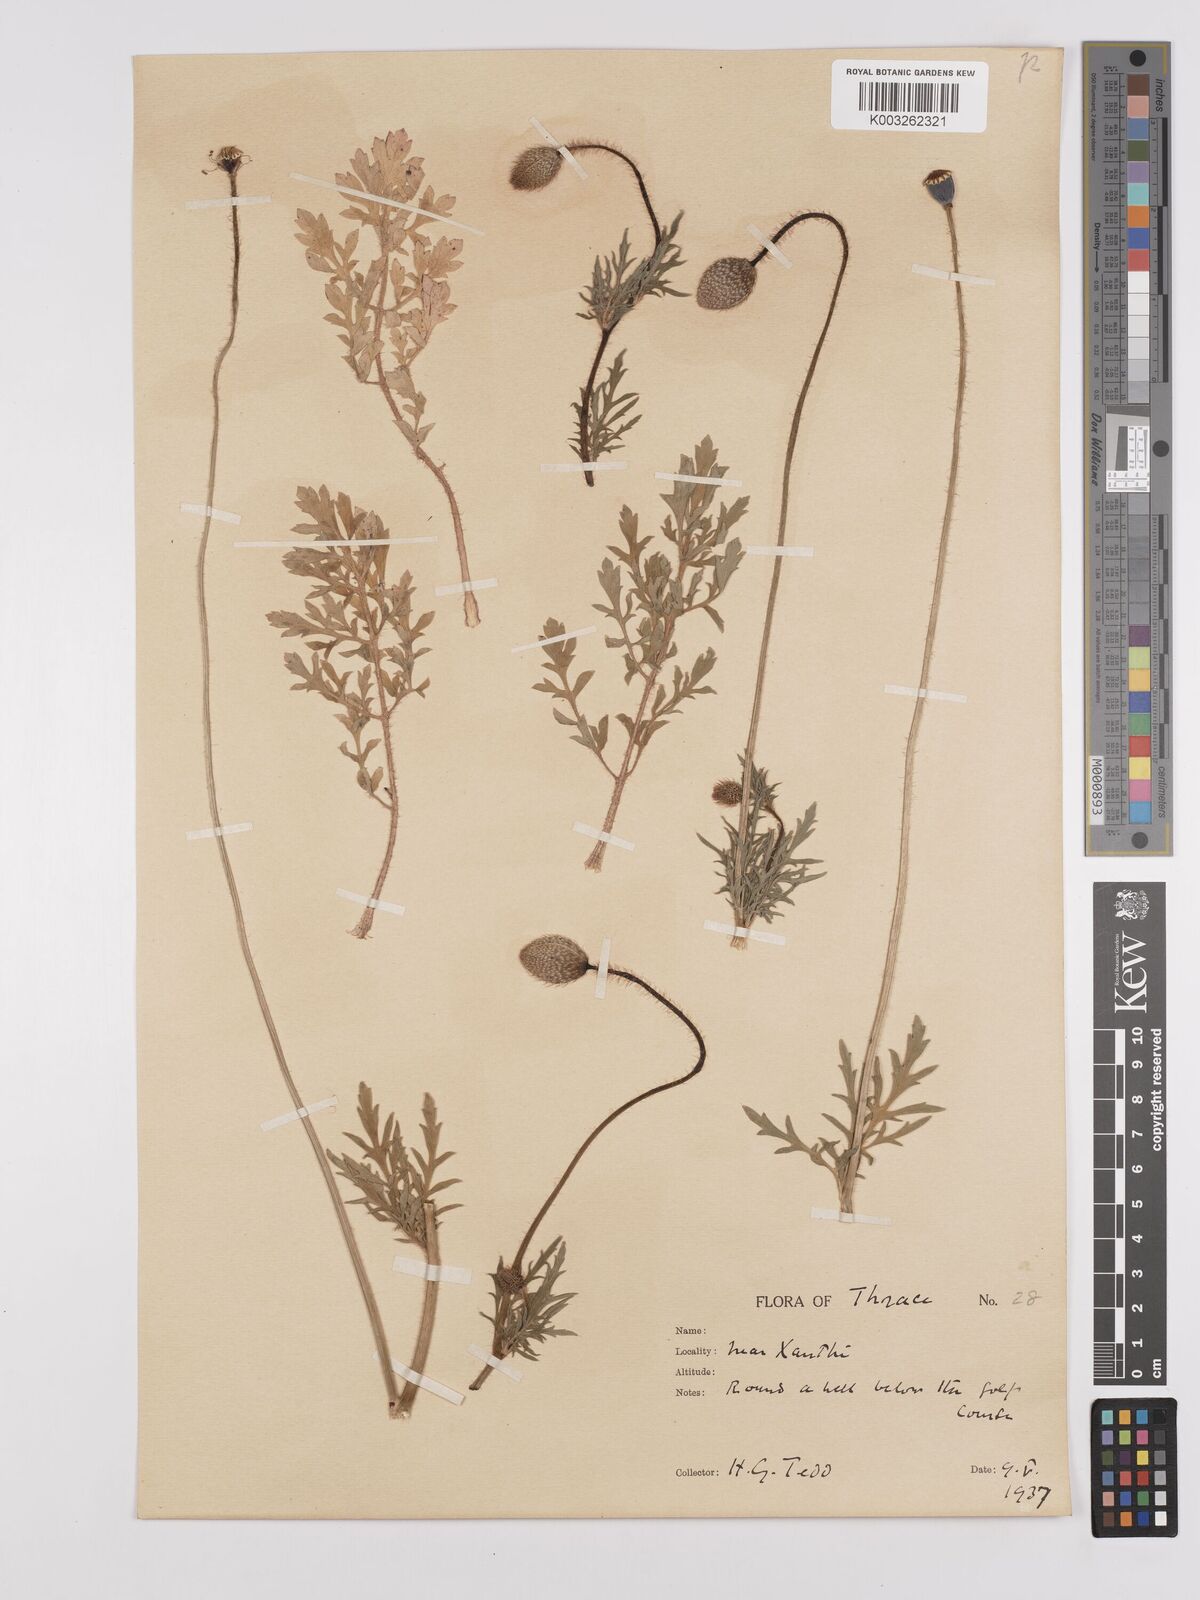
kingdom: Plantae
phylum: Tracheophyta
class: Magnoliopsida
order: Ranunculales
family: Papaveraceae
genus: Papaver
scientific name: Papaver rhoeas
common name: Corn poppy
